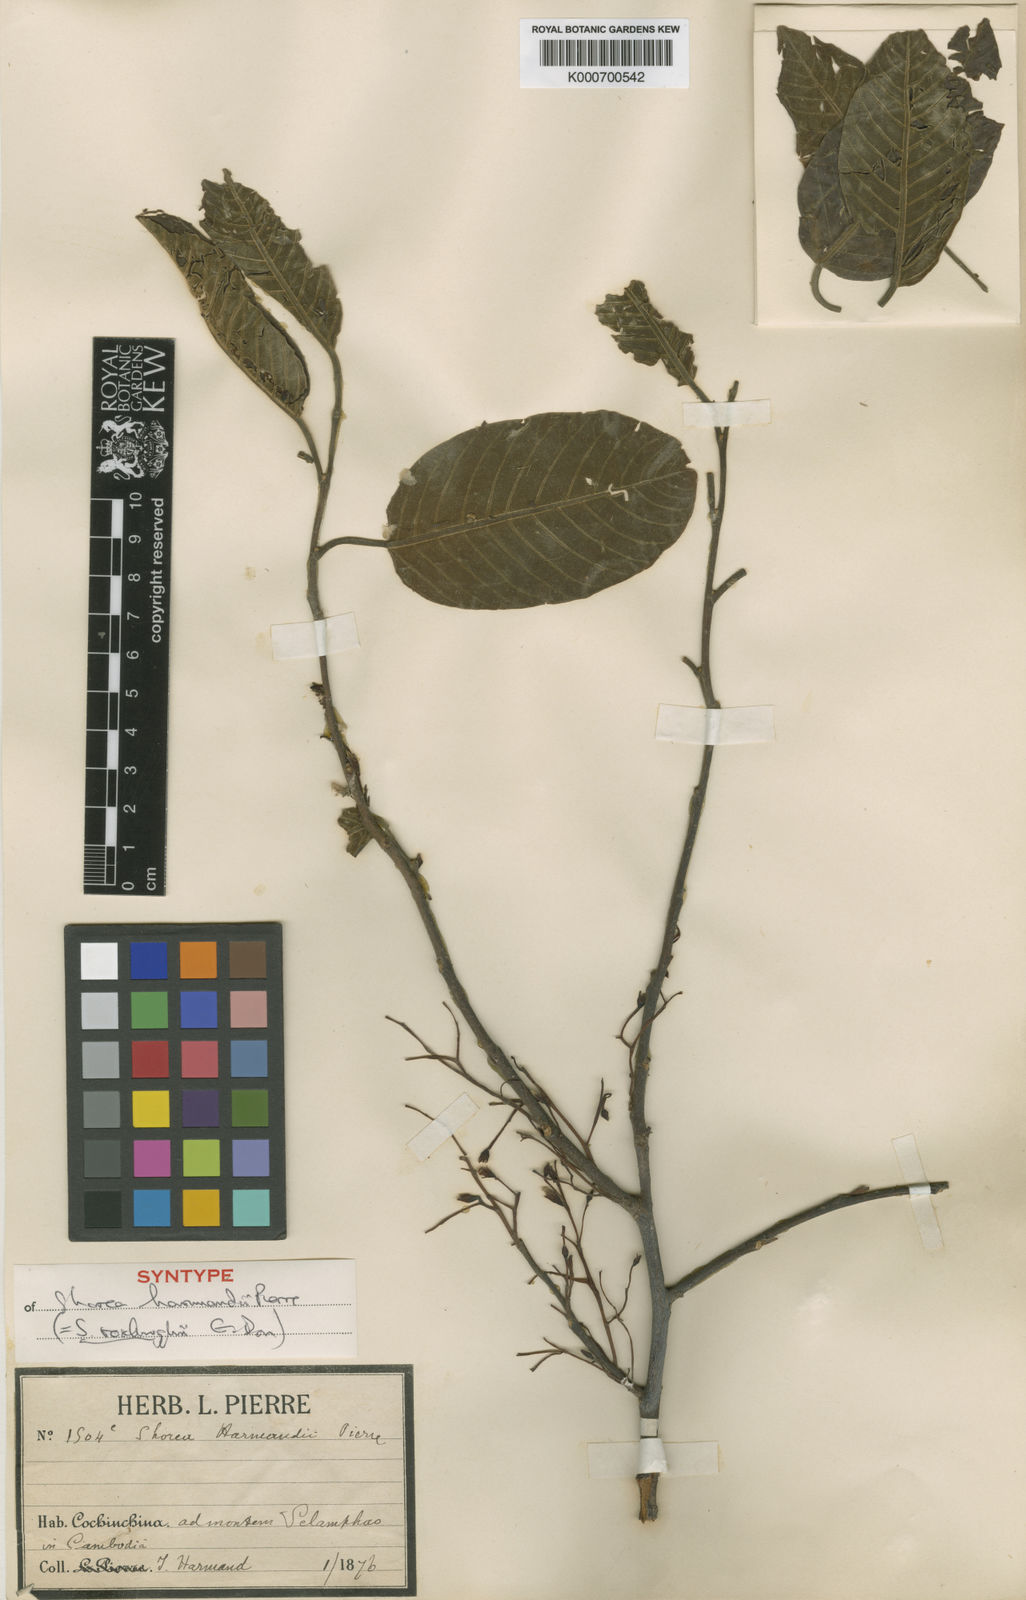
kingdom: Plantae
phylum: Tracheophyta
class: Magnoliopsida
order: Malvales
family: Dipterocarpaceae
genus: Anthoshorea
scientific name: Anthoshorea roxburghii
